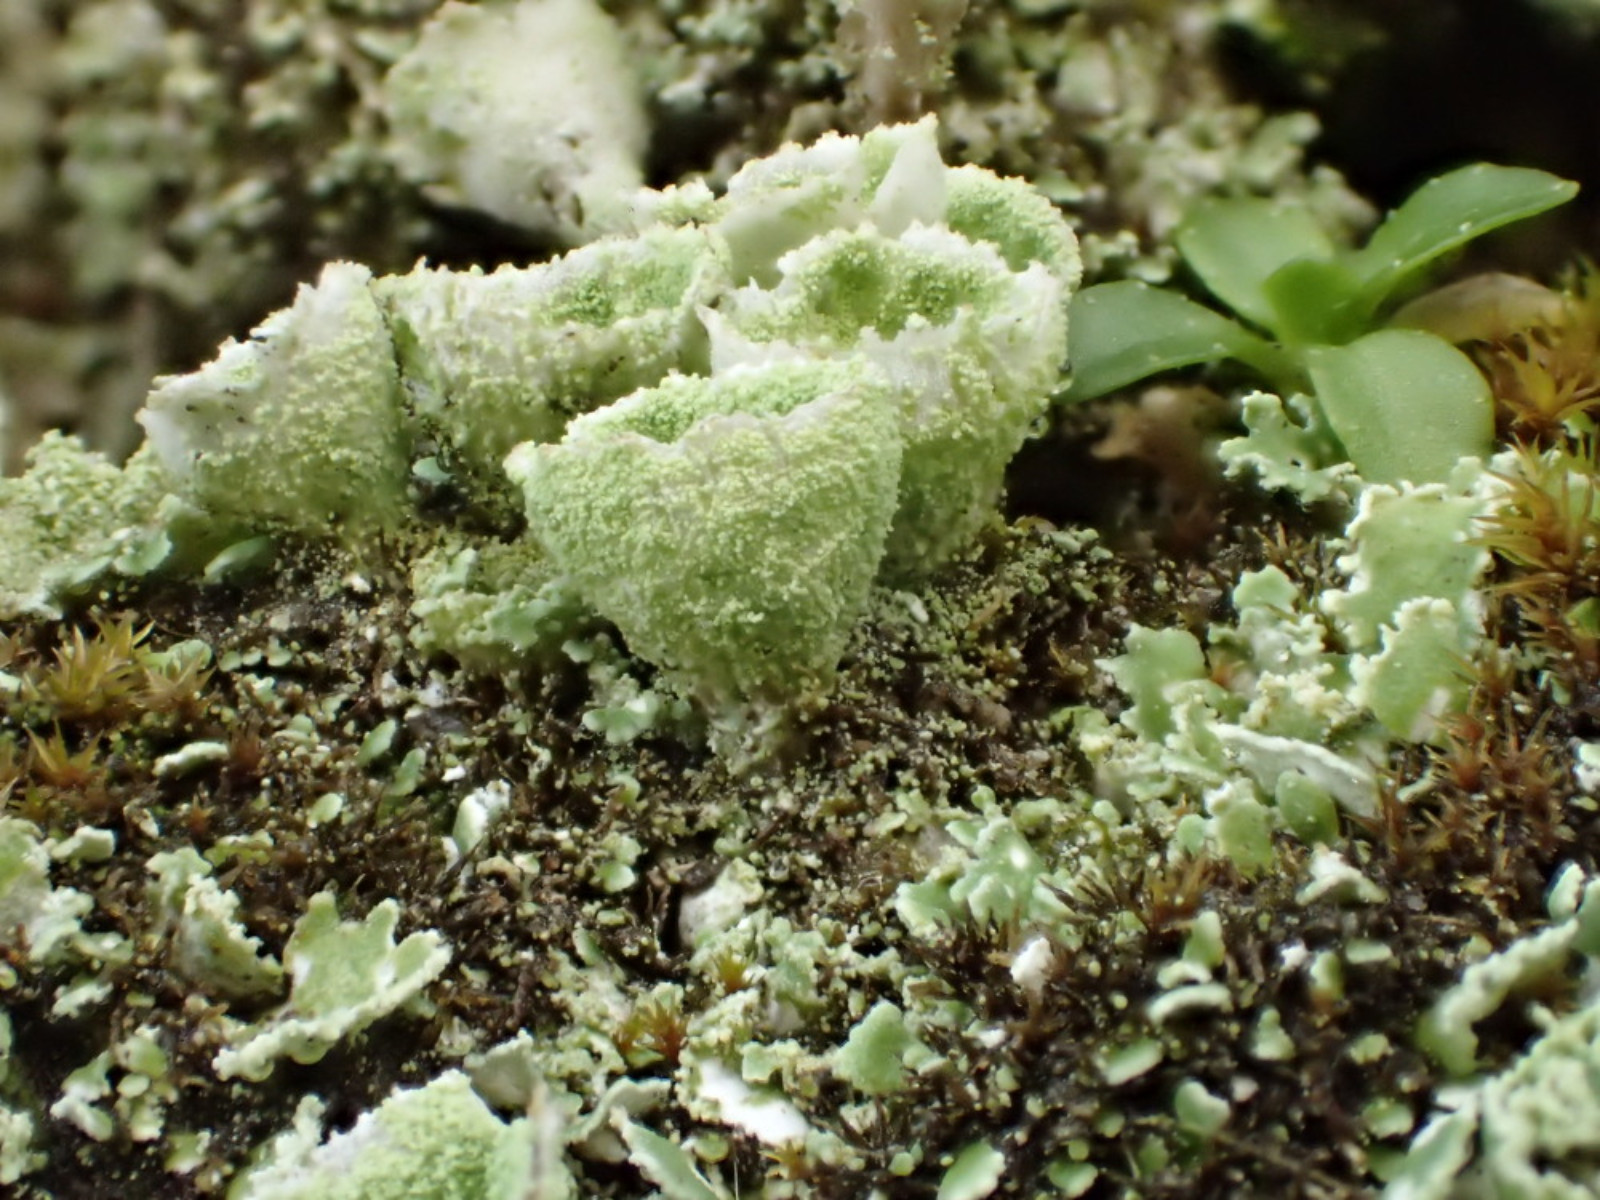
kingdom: Fungi
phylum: Ascomycota
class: Lecanoromycetes
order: Lecanorales
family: Cladoniaceae
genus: Cladonia
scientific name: Cladonia humilis
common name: lav bægerlav
